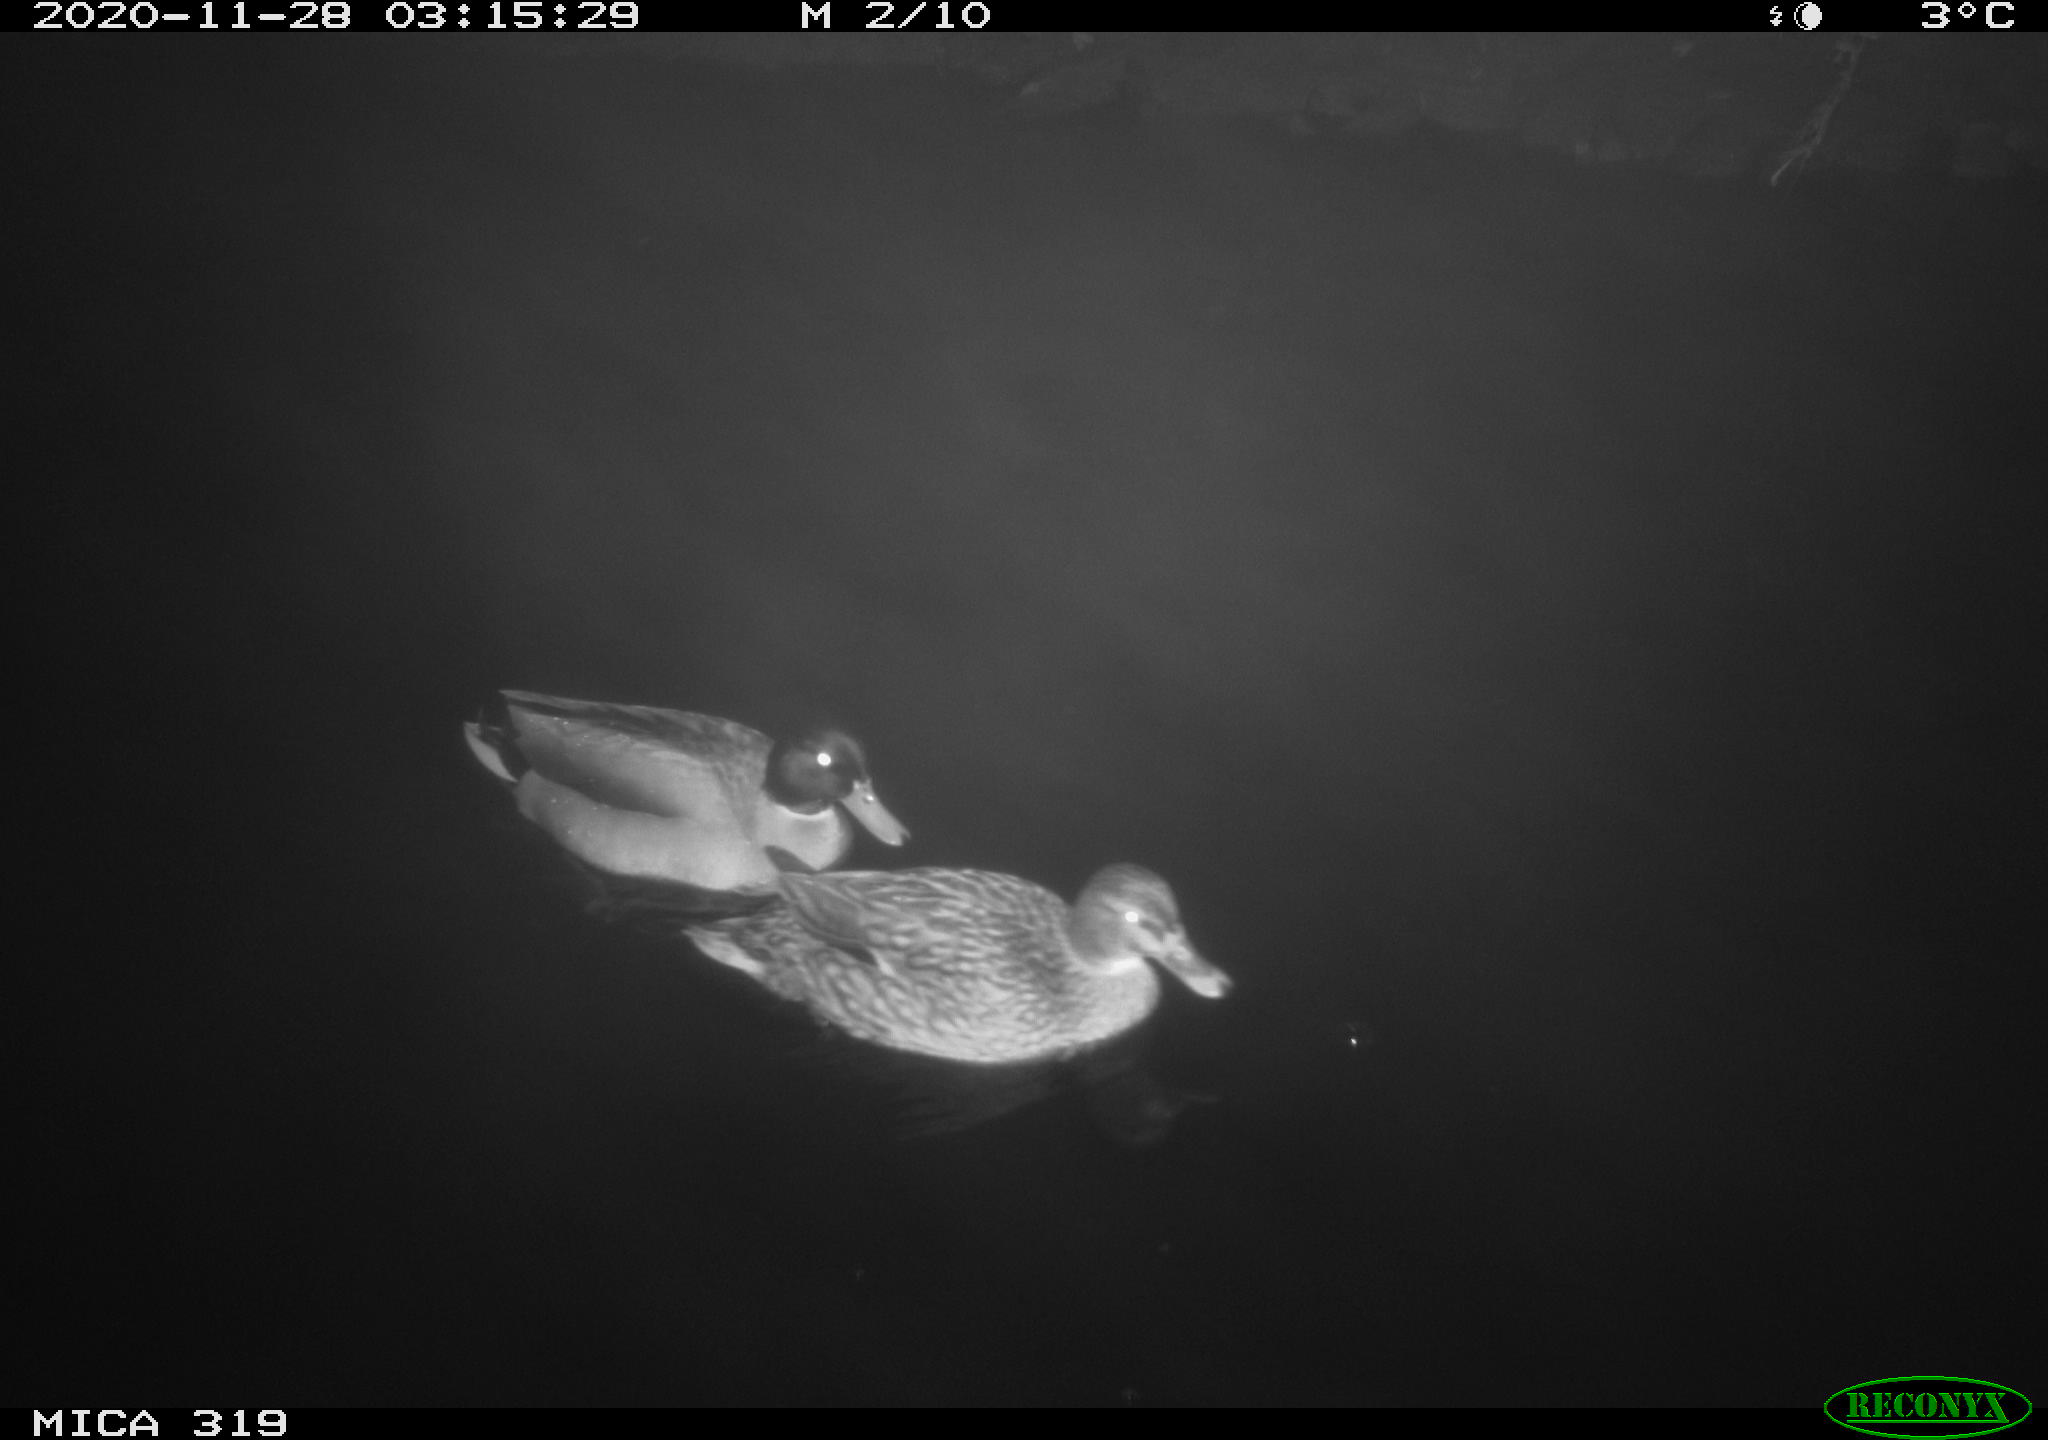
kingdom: Animalia
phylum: Chordata
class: Aves
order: Anseriformes
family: Anatidae
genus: Anas
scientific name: Anas platyrhynchos
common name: Mallard
